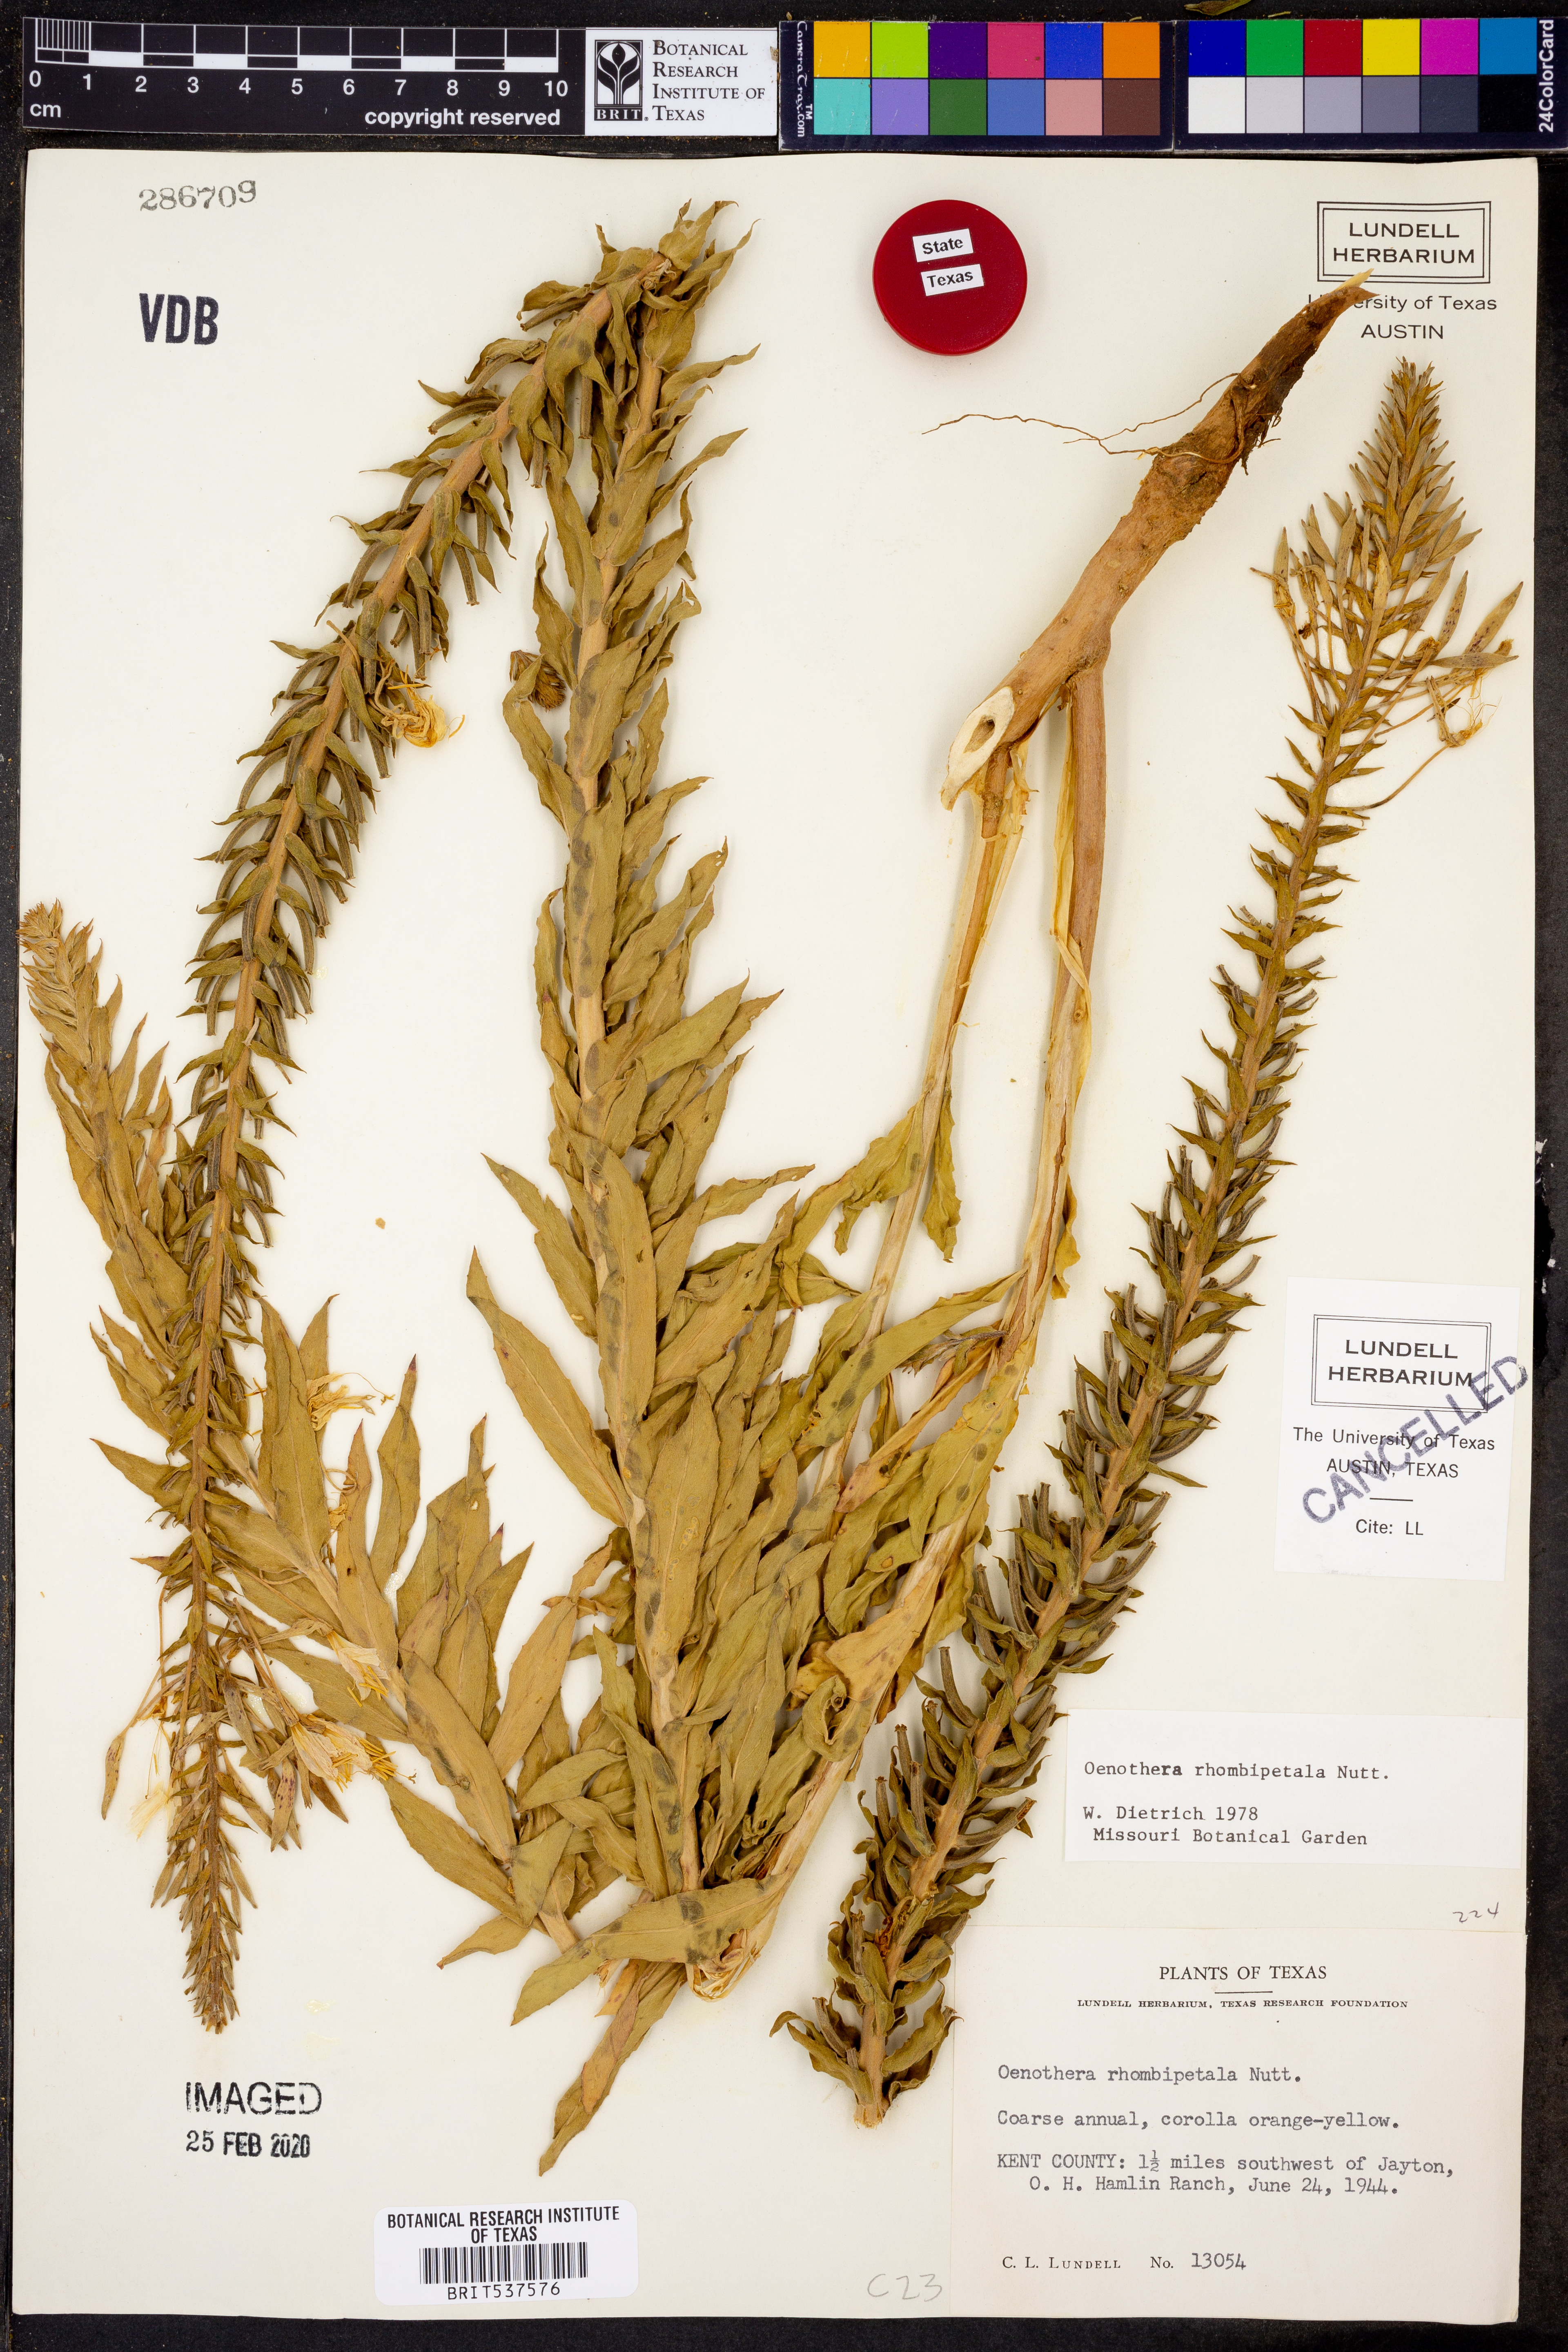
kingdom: Plantae
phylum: Tracheophyta
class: Magnoliopsida
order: Myrtales
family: Onagraceae
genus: Oenothera
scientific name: Oenothera rhombipetala
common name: Four-points evening-primrose
